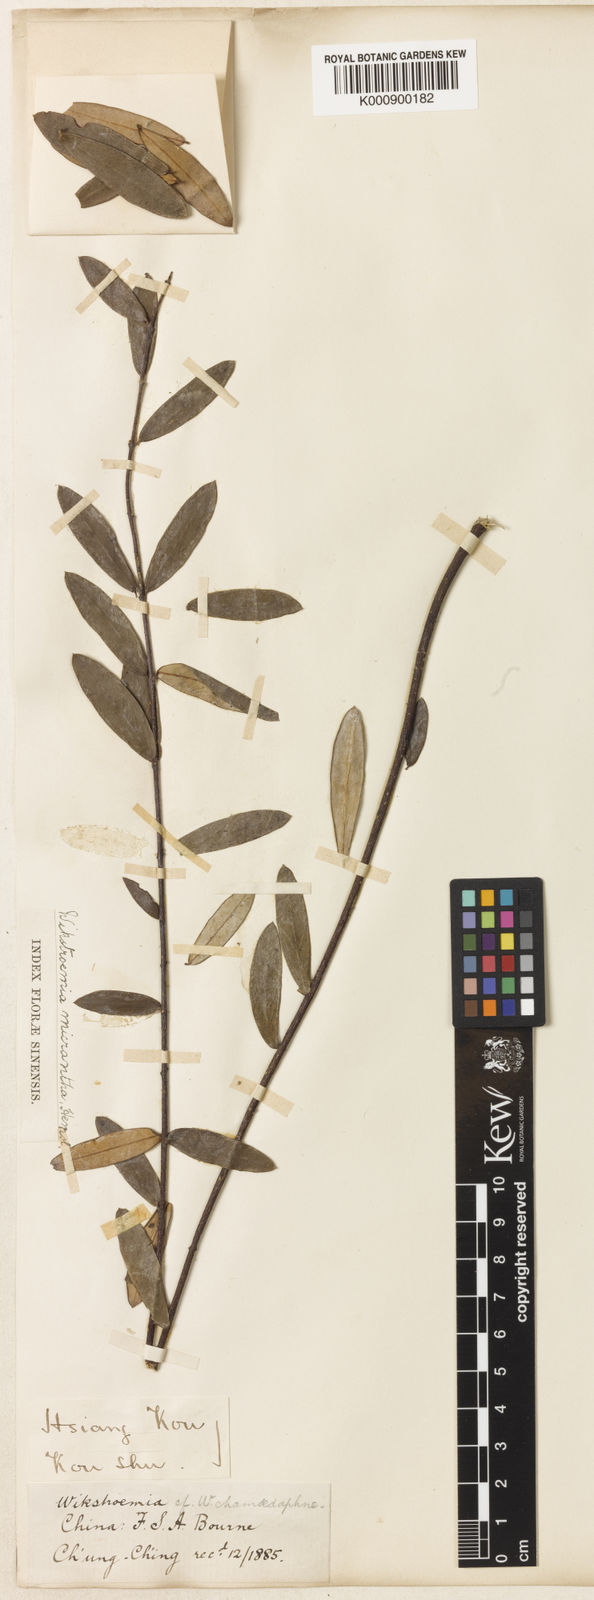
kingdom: Plantae
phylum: Tracheophyta
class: Magnoliopsida
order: Malvales
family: Thymelaeaceae
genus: Wikstroemia
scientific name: Wikstroemia micrantha
